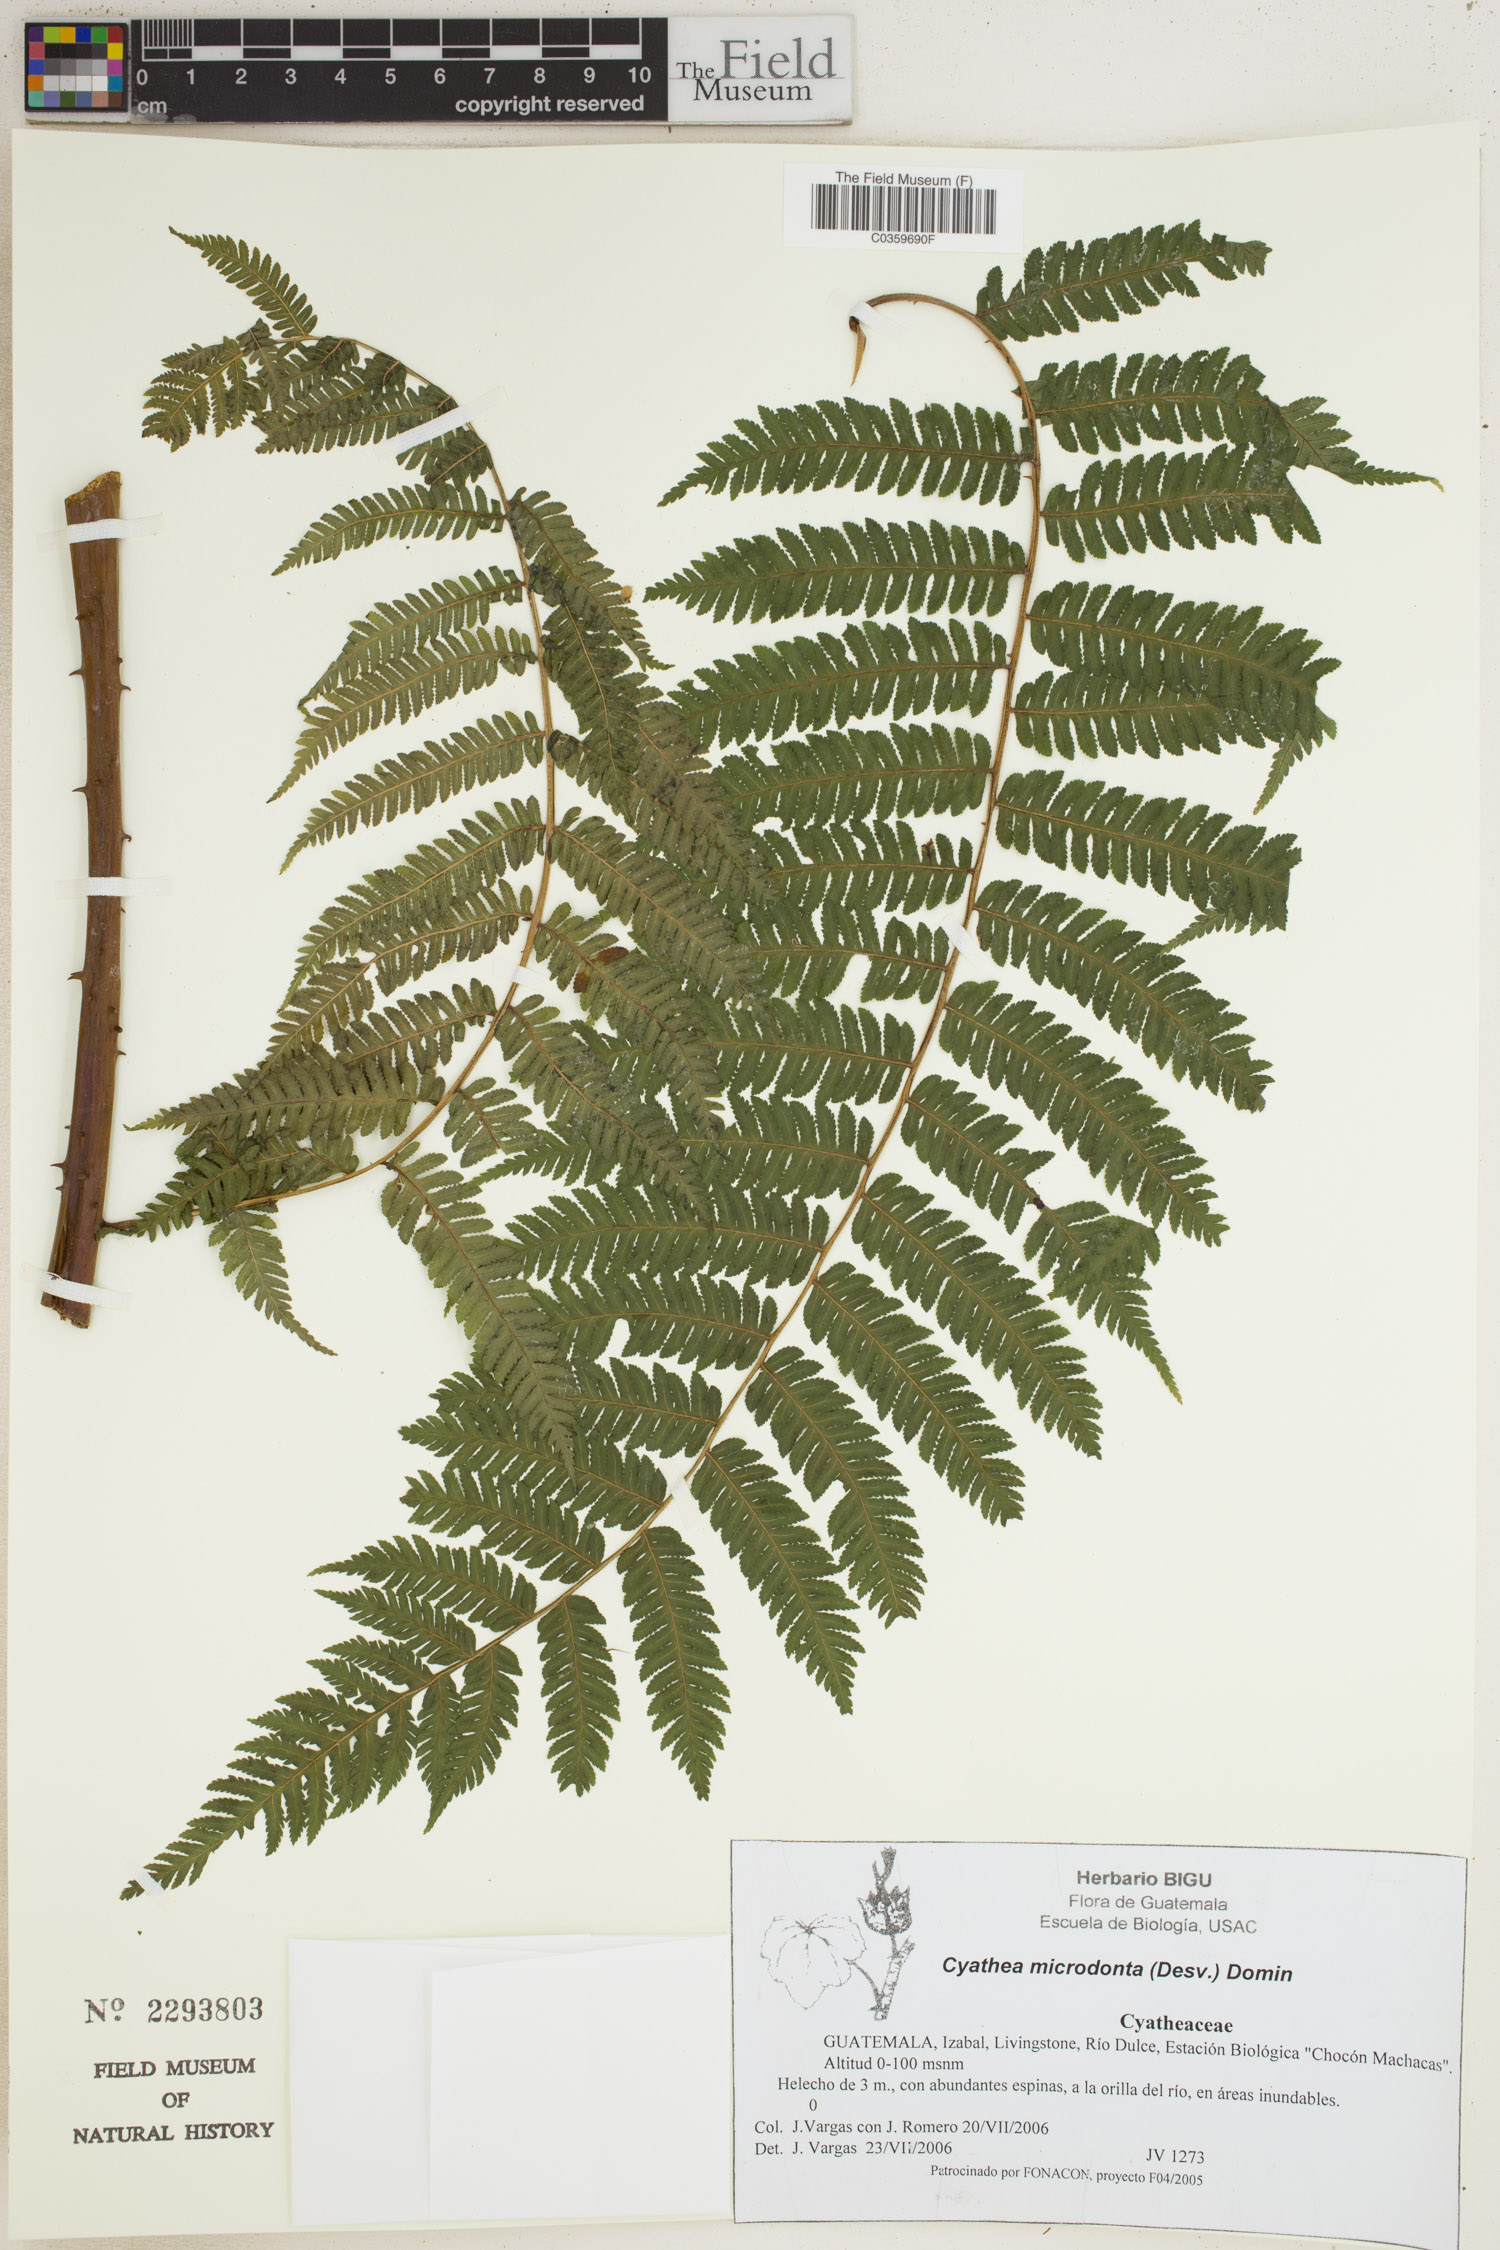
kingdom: Plantae
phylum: Tracheophyta
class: Polypodiopsida
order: Cyatheales
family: Cyatheaceae
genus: Cyathea
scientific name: Cyathea microdonta
